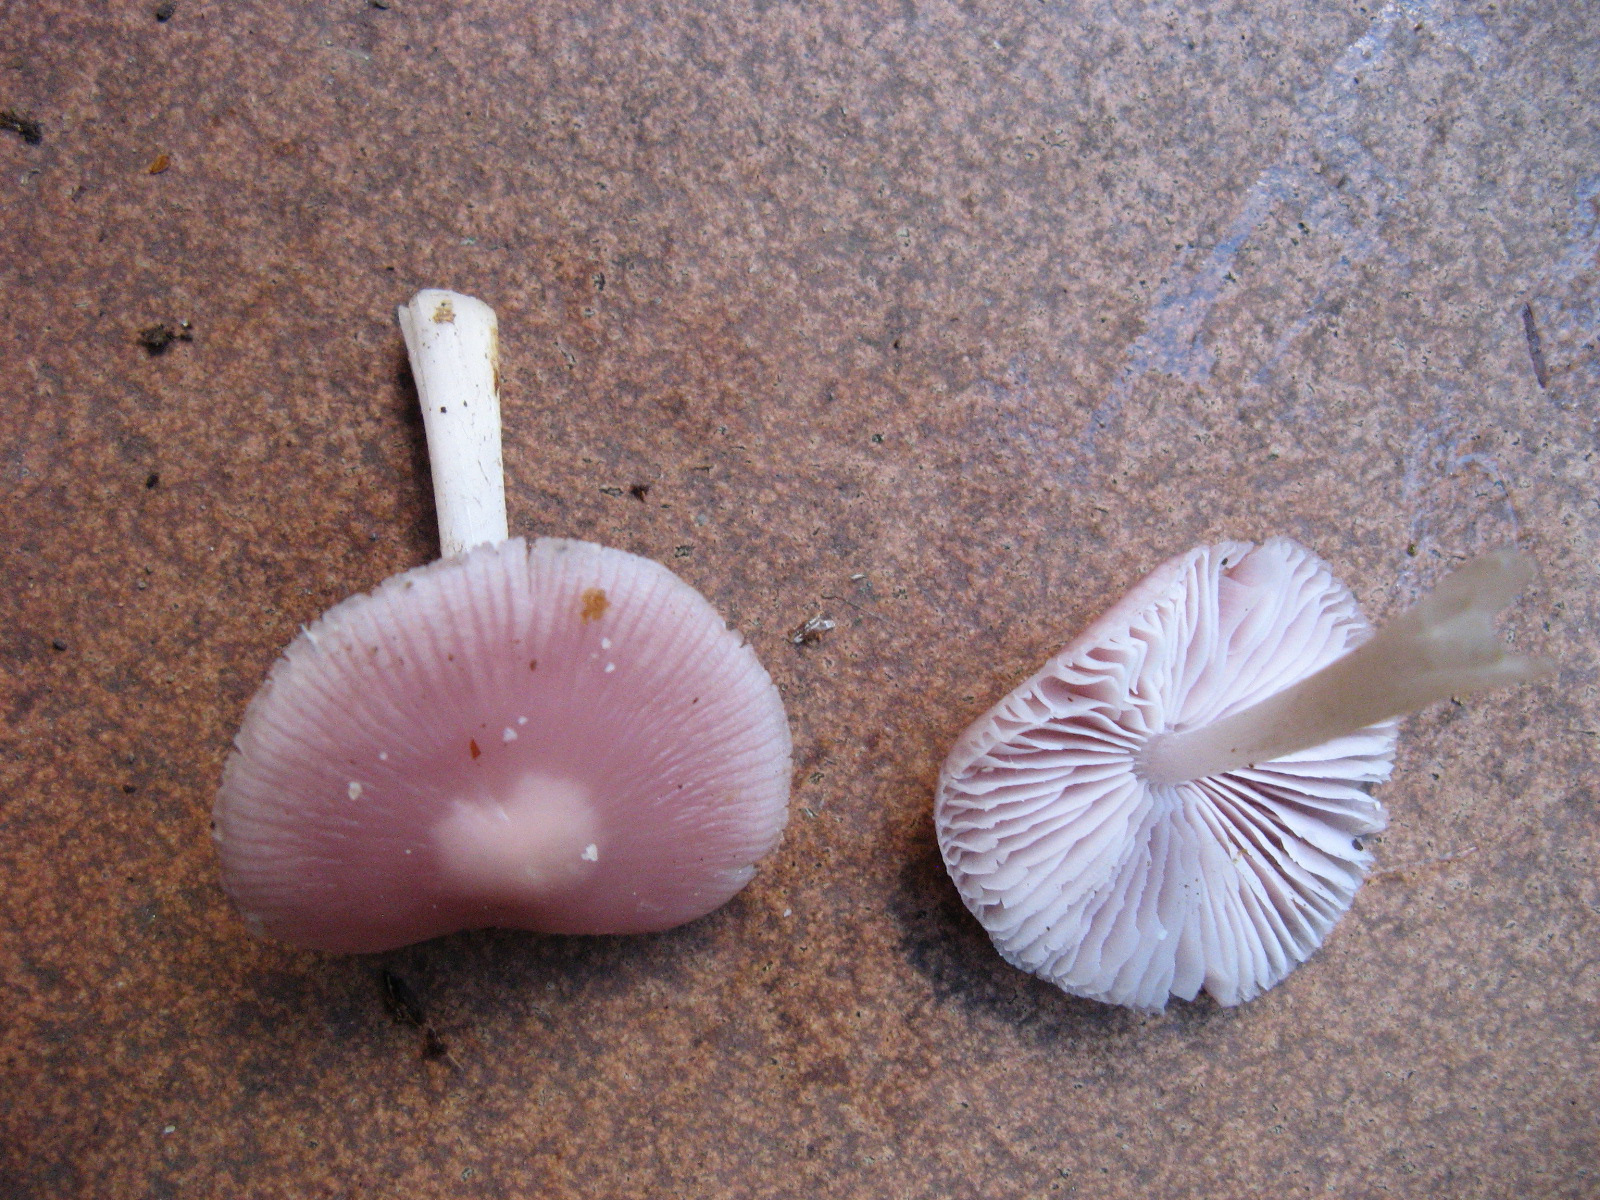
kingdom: Fungi
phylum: Basidiomycota
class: Agaricomycetes
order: Agaricales
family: Mycenaceae
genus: Mycena
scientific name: Mycena rosea
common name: rosa huesvamp
